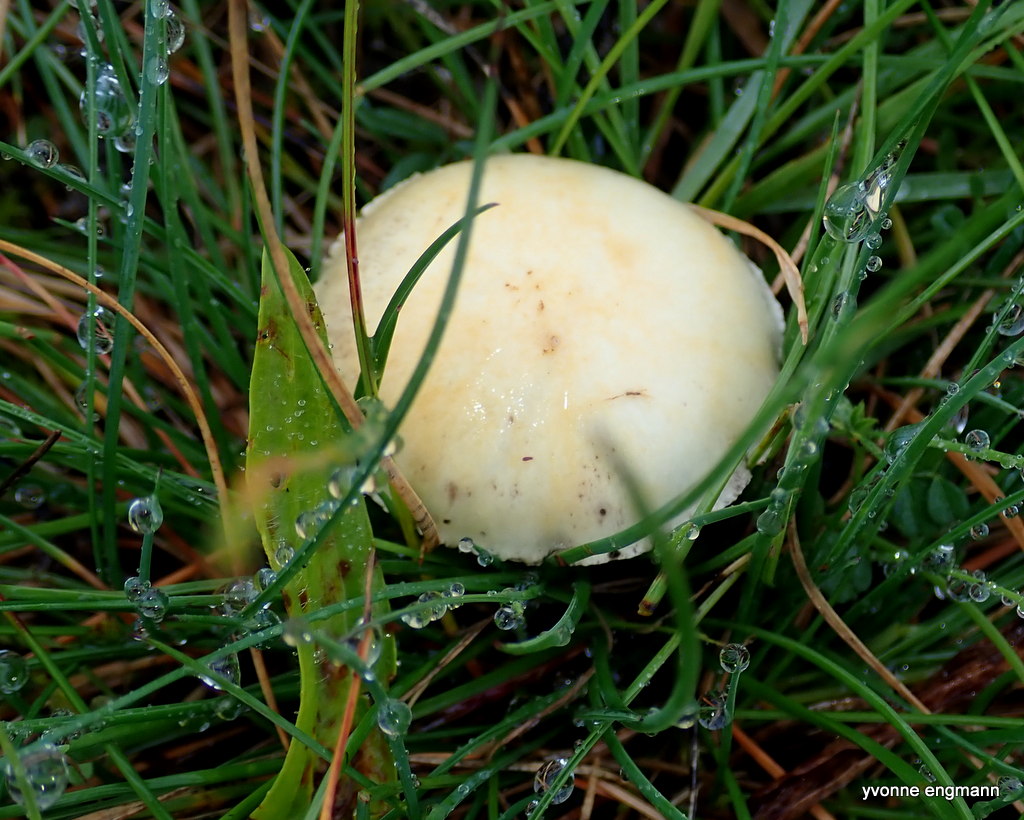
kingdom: Fungi
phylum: Basidiomycota
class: Agaricomycetes
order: Agaricales
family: Hymenogastraceae
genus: Psilocybe
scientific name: Psilocybe coronilla
